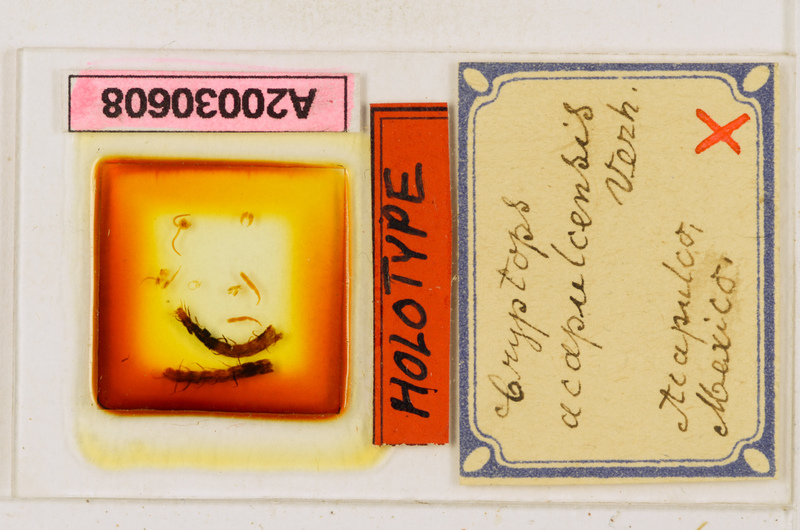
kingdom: Animalia
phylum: Arthropoda
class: Chilopoda
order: Scolopendromorpha
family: Cryptopidae
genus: Cryptops
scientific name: Cryptops acapulcensis
